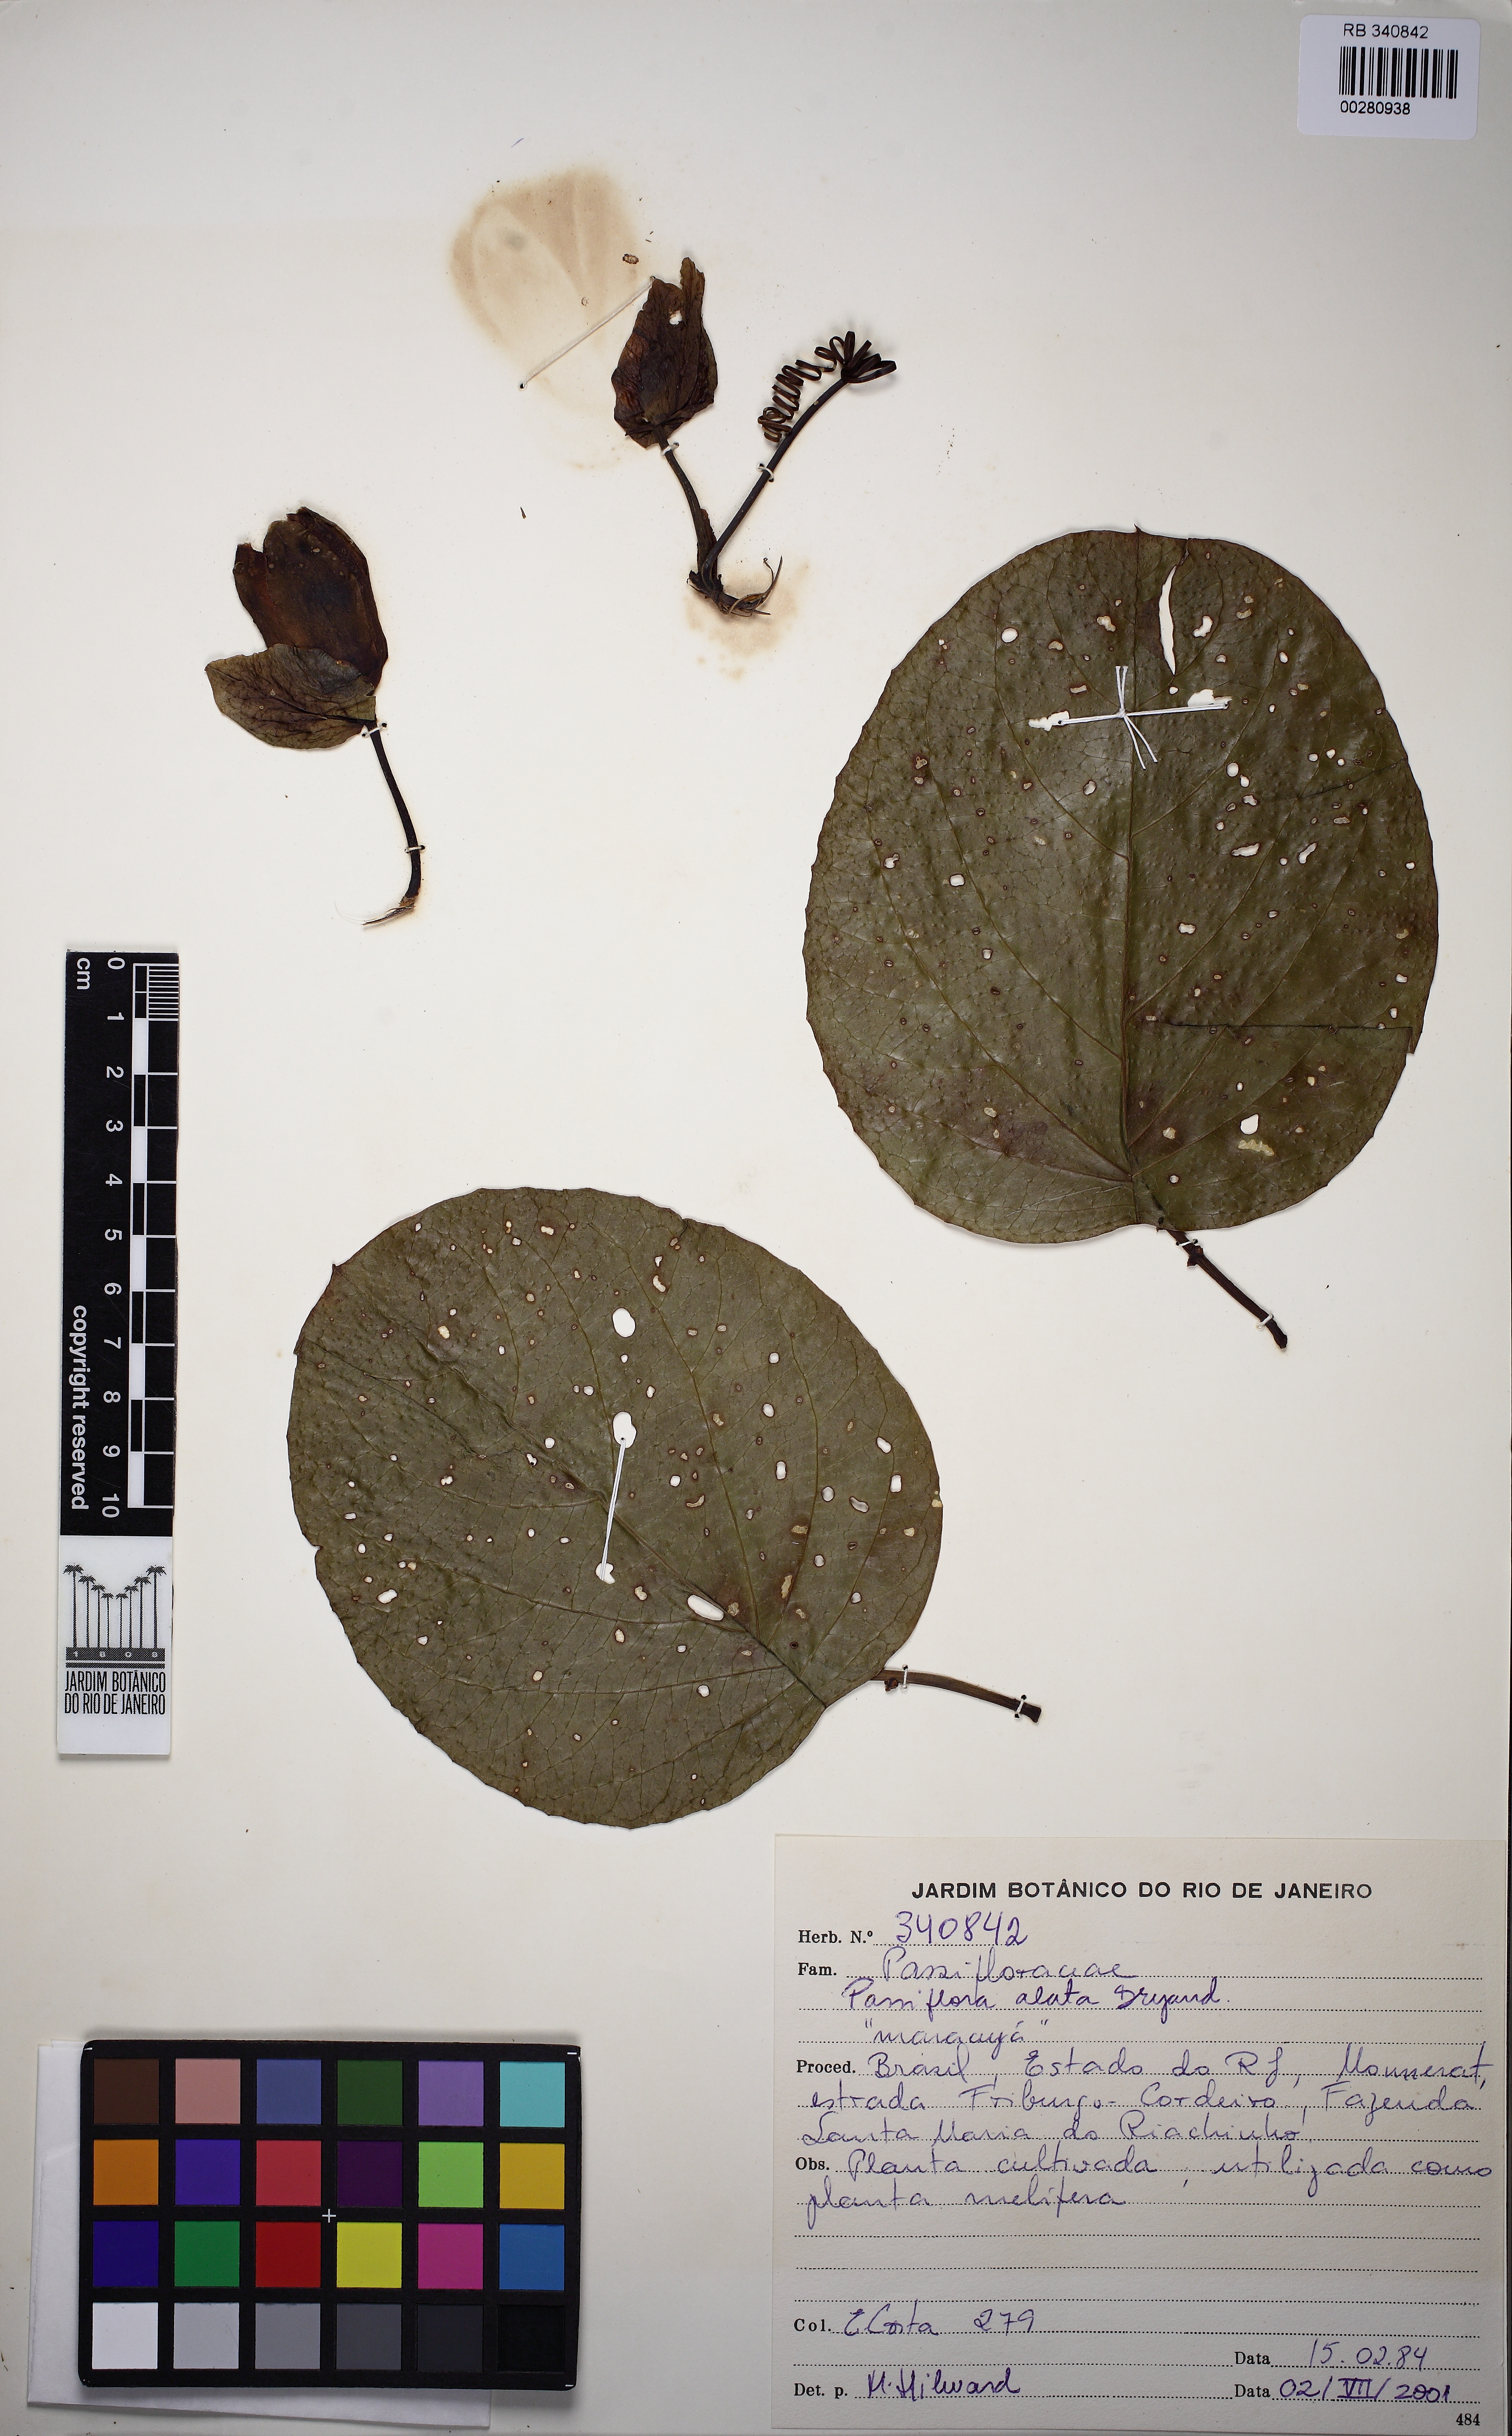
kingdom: Plantae
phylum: Tracheophyta
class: Magnoliopsida
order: Malpighiales
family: Passifloraceae
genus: Passiflora
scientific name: Passiflora alata
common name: Wing-stemmed passion flower
